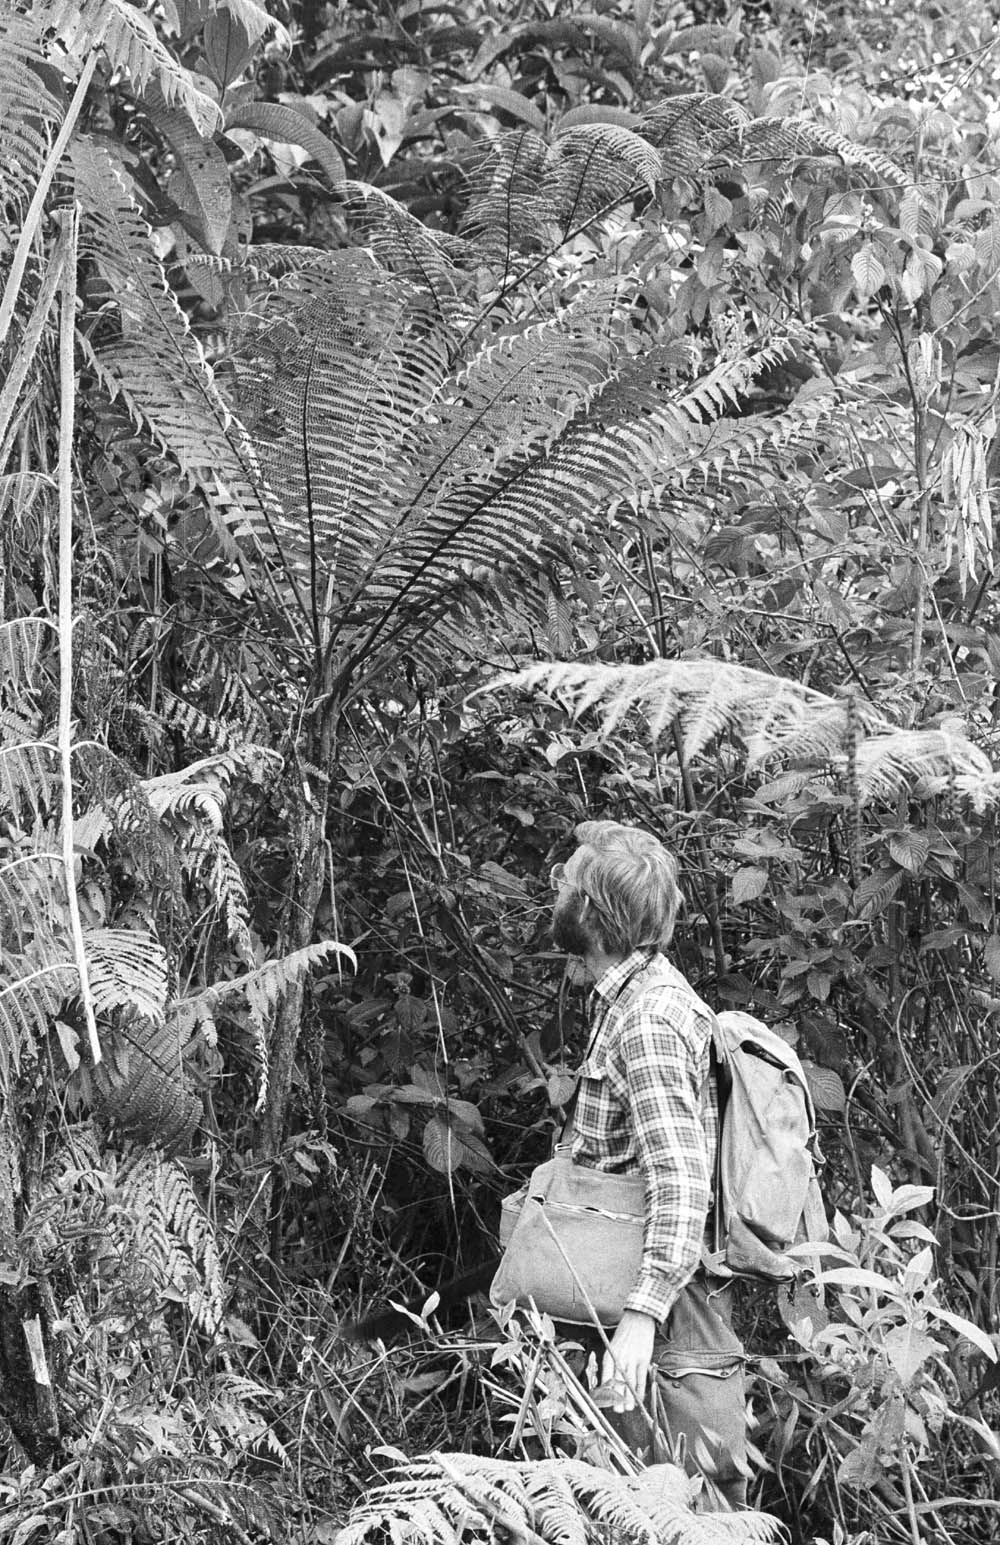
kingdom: Plantae
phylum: Tracheophyta
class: Polypodiopsida
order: Cyatheales
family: Cyatheaceae
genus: Cyathea
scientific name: Cyathea bipinnatifida
